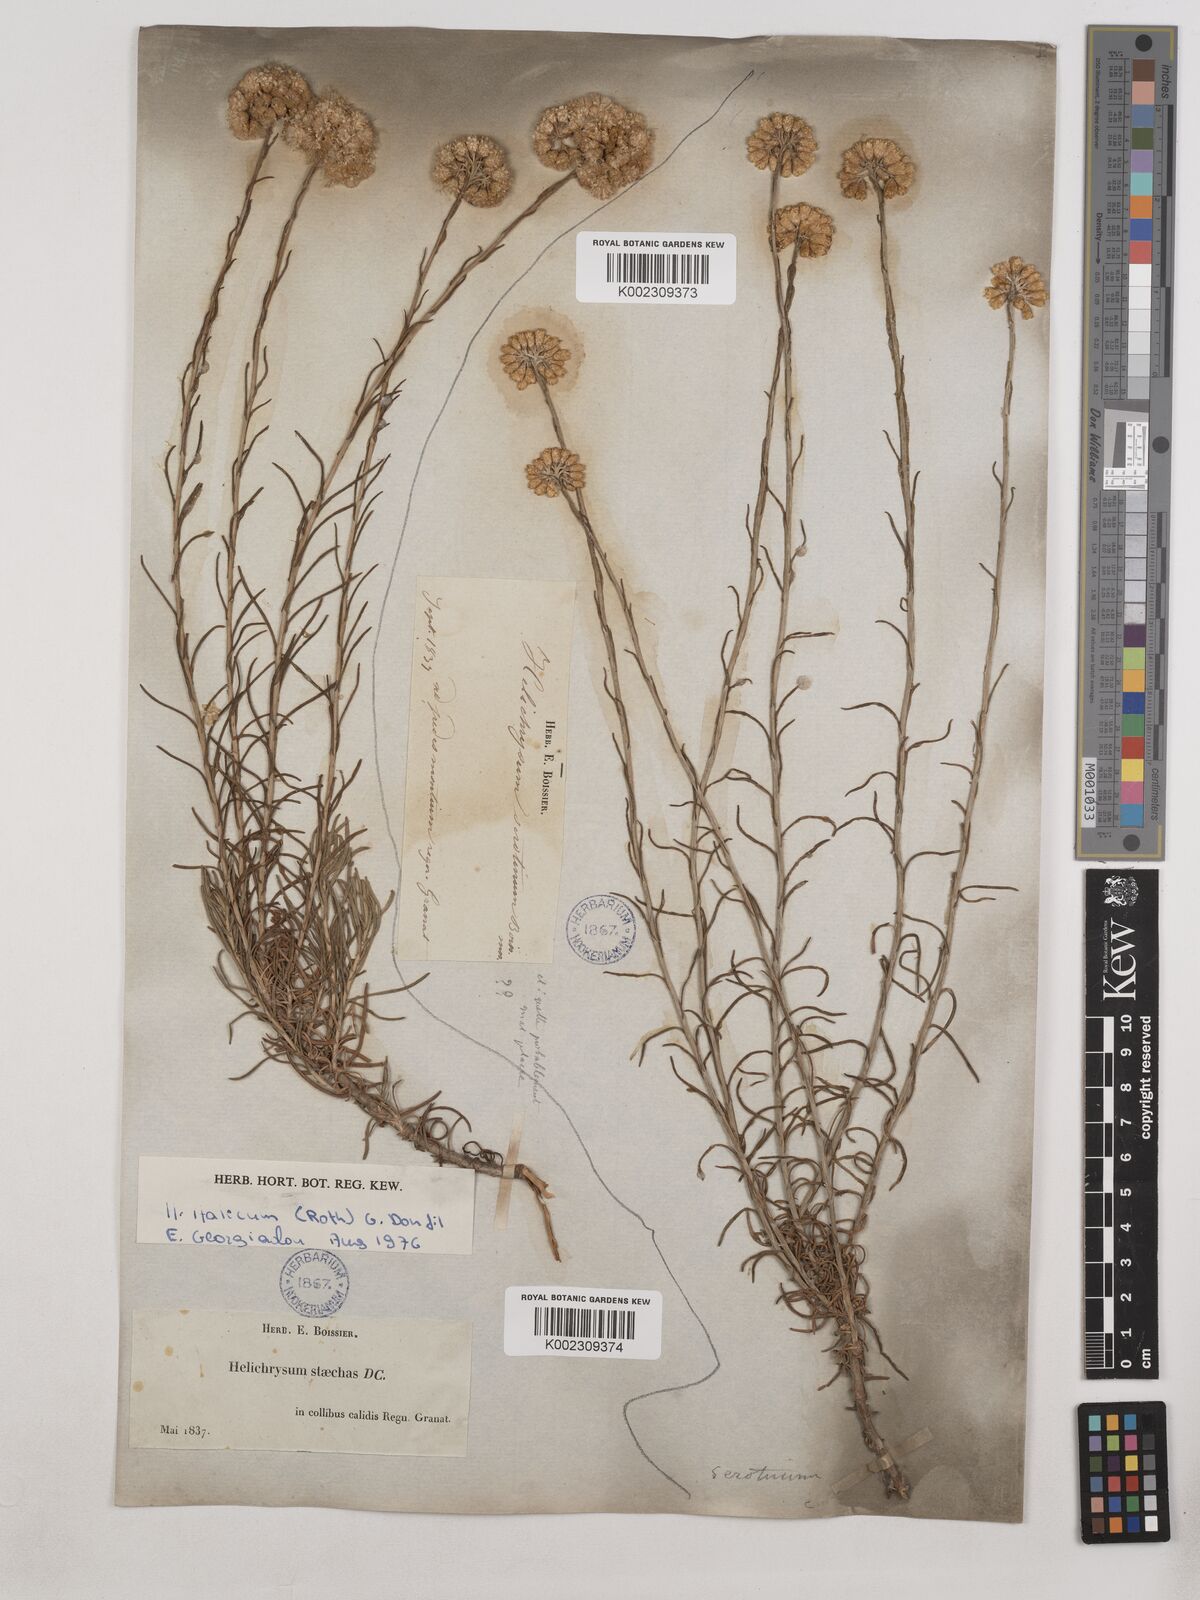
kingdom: Plantae
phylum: Tracheophyta
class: Magnoliopsida
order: Asterales
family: Asteraceae
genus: Helichrysum
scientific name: Helichrysum
